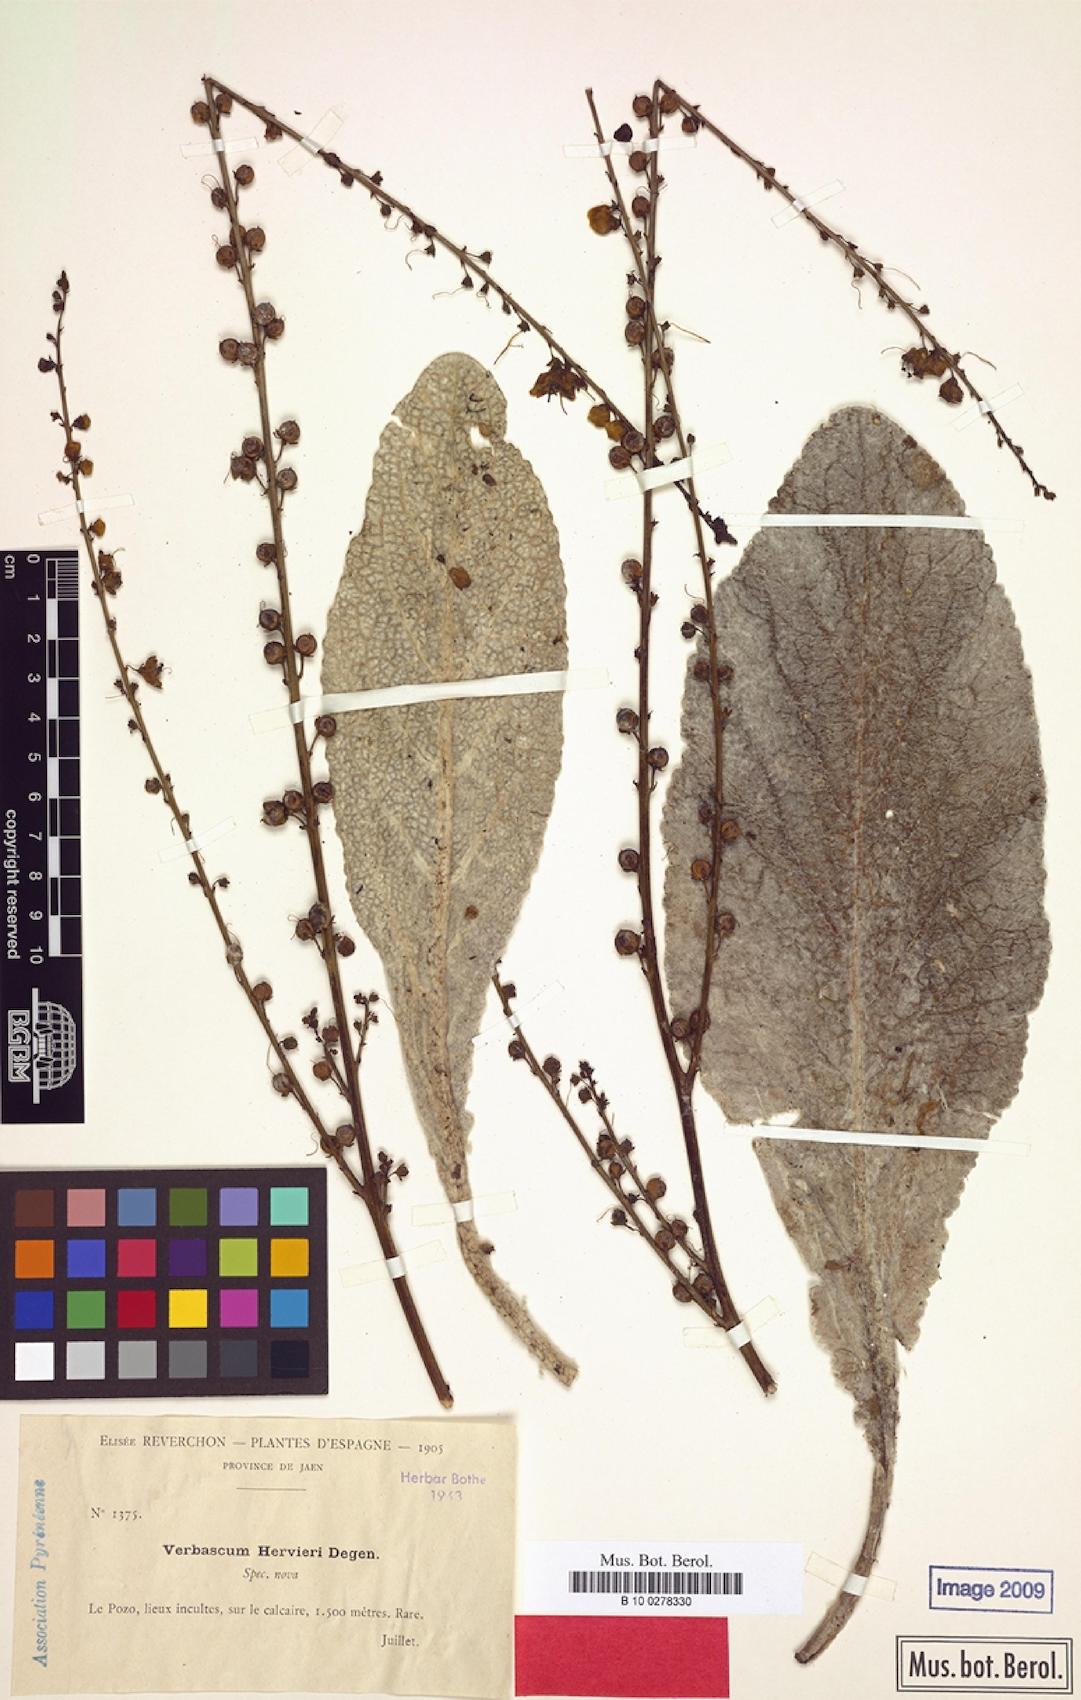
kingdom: Plantae
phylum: Tracheophyta
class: Magnoliopsida
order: Lamiales
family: Scrophulariaceae
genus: Verbascum
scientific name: Verbascum hervieri
